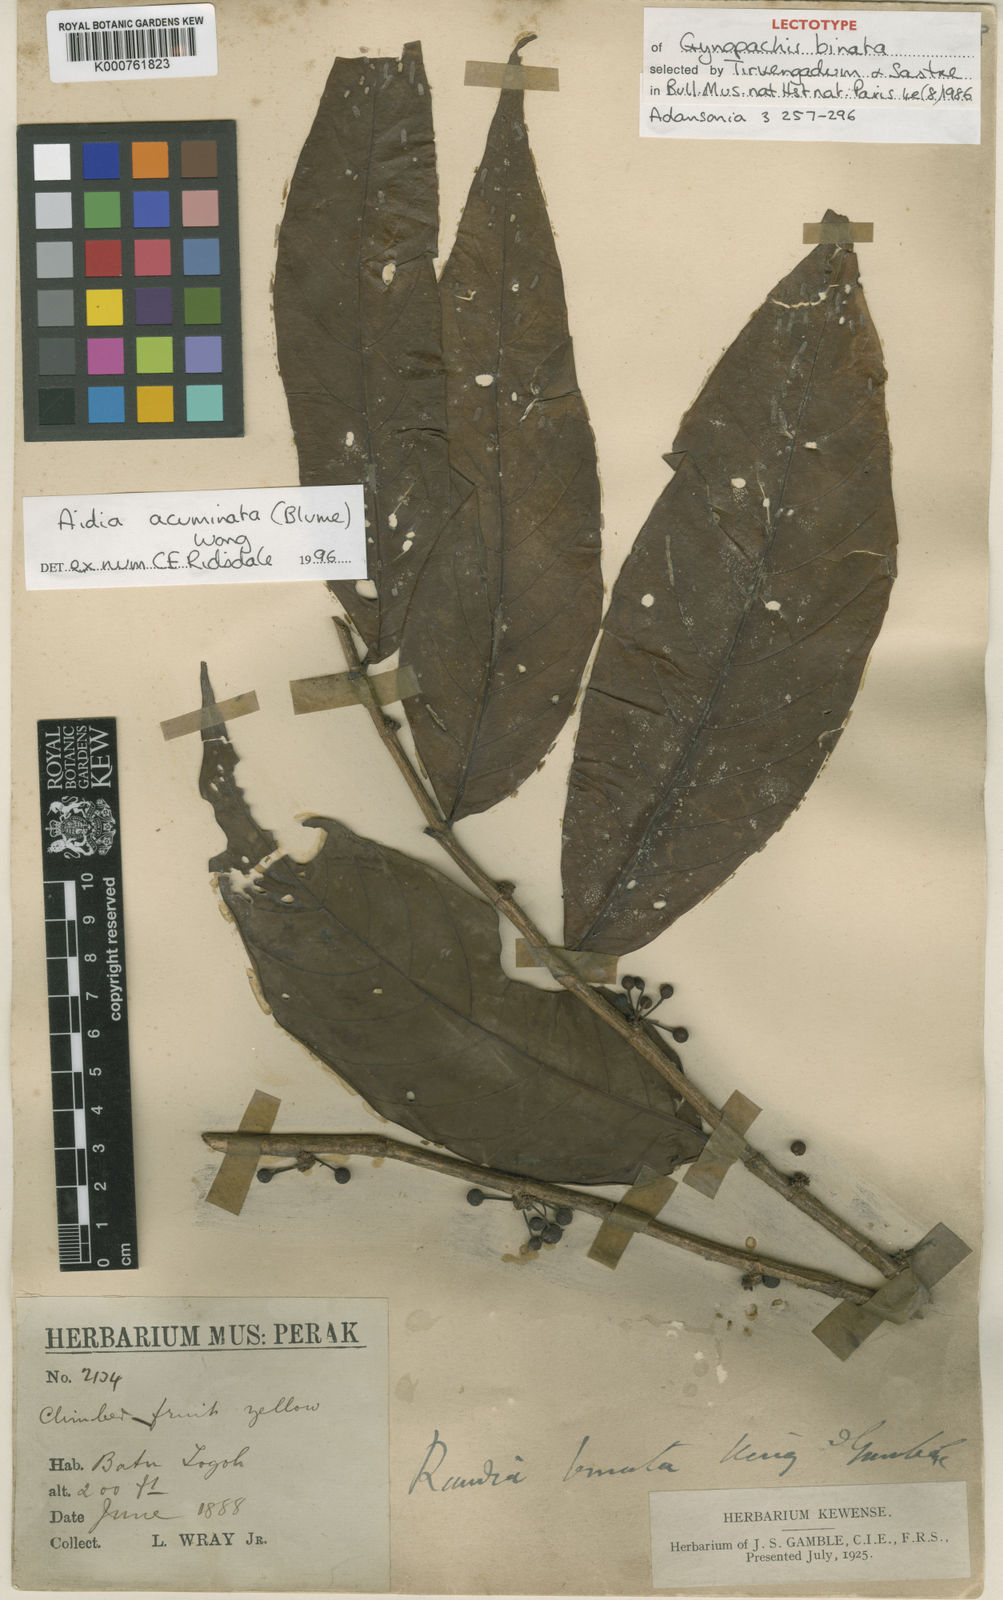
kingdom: Plantae
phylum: Tracheophyta
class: Magnoliopsida
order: Gentianales
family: Rubiaceae
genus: Aidia
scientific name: Aidia acuminata
